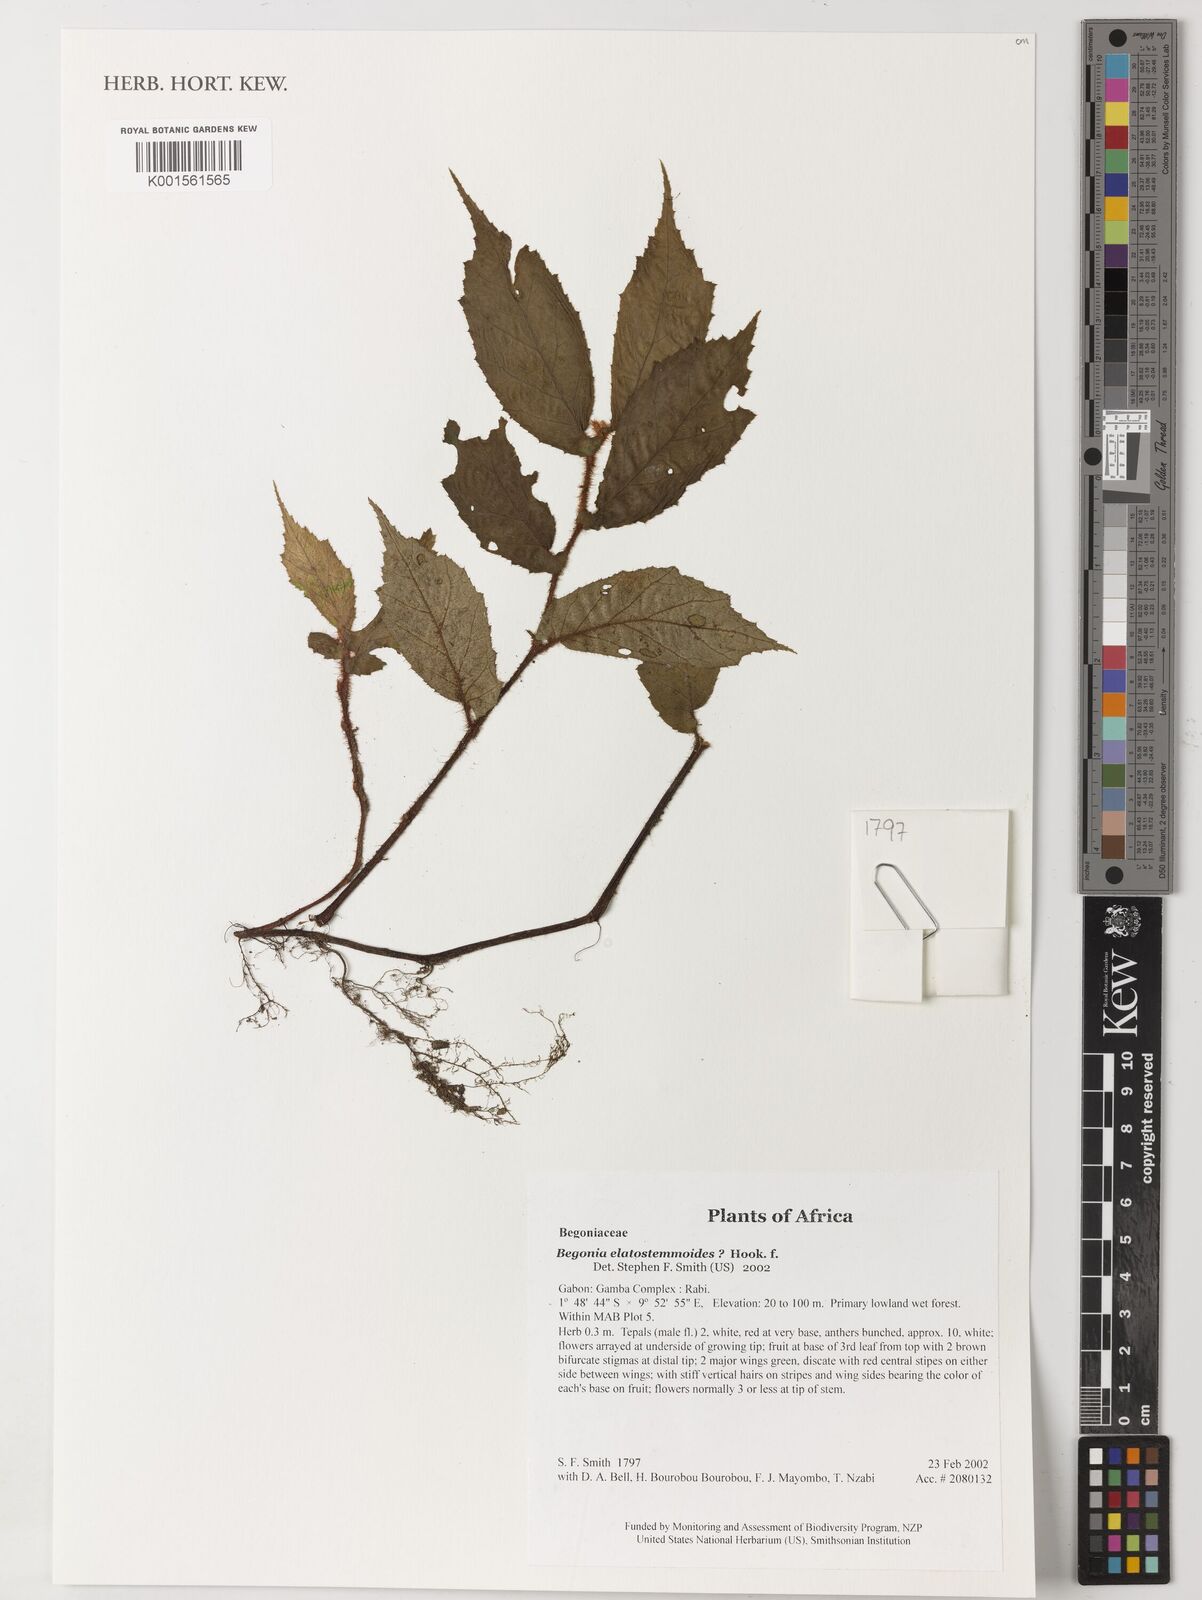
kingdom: Plantae
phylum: Tracheophyta
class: Magnoliopsida
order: Cucurbitales
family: Begoniaceae
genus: Begonia
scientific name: Begonia elatostematoides
